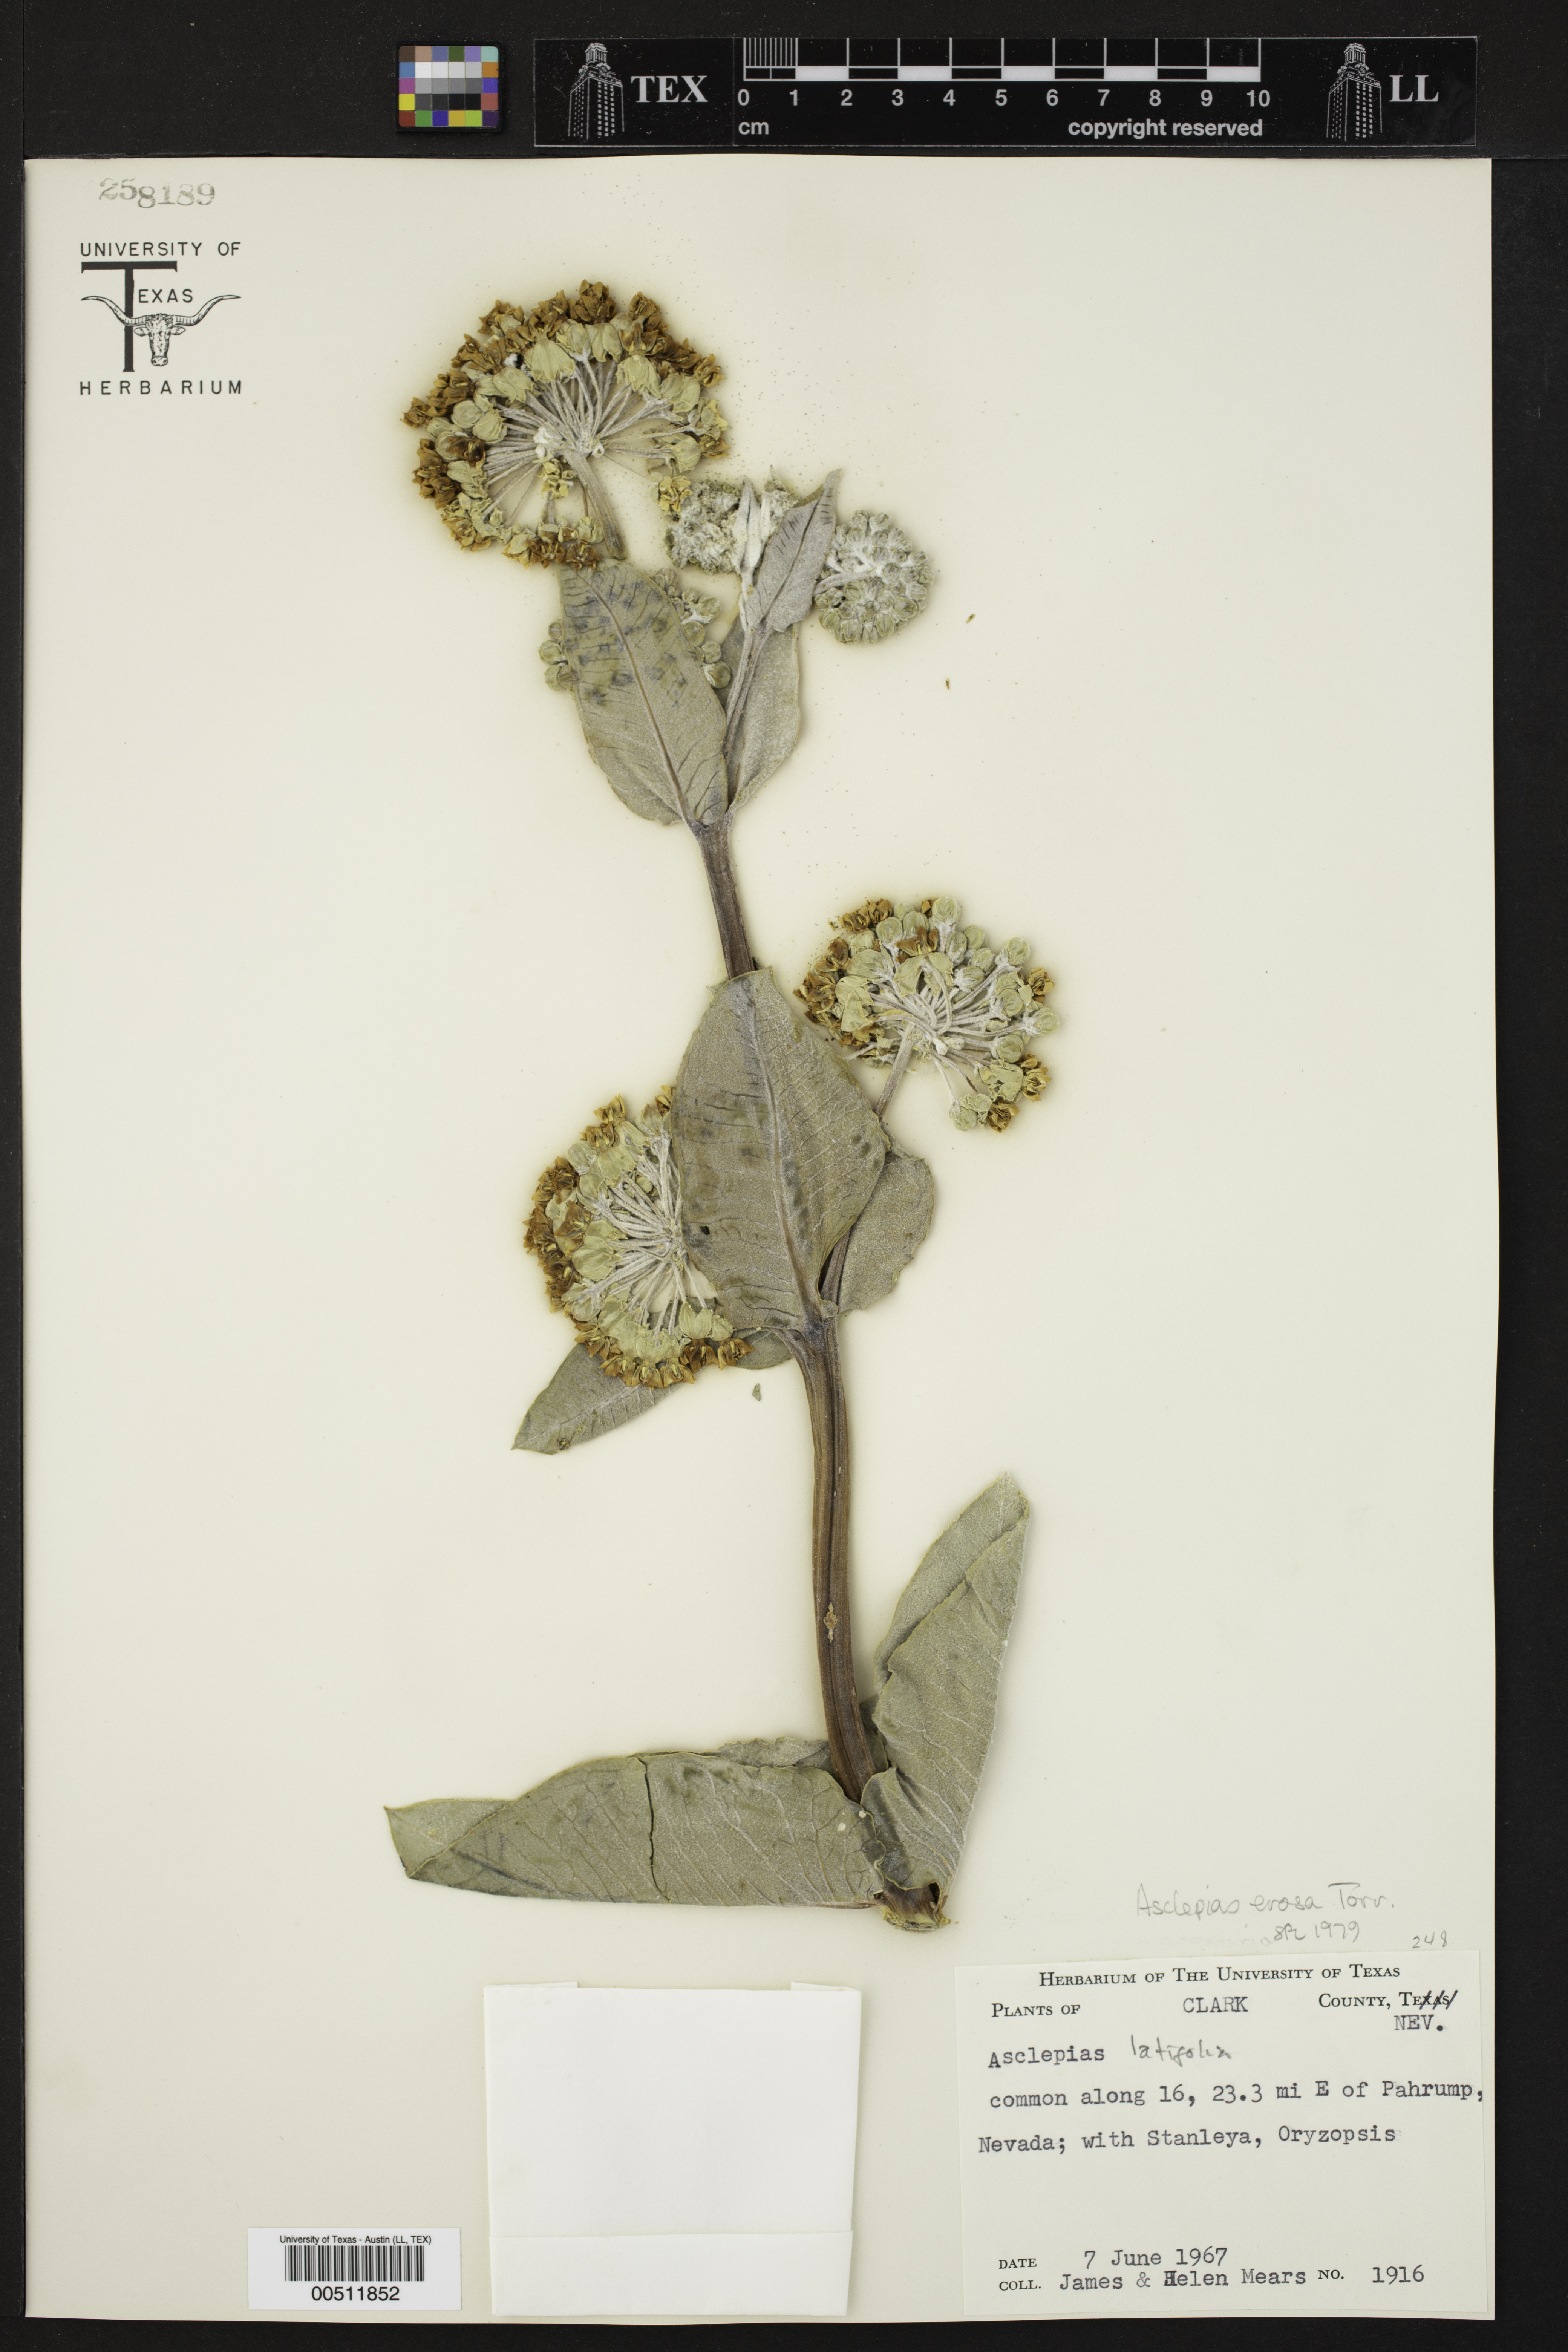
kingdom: Plantae
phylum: Tracheophyta
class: Magnoliopsida
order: Gentianales
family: Apocynaceae
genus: Asclepias
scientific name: Asclepias erosa
